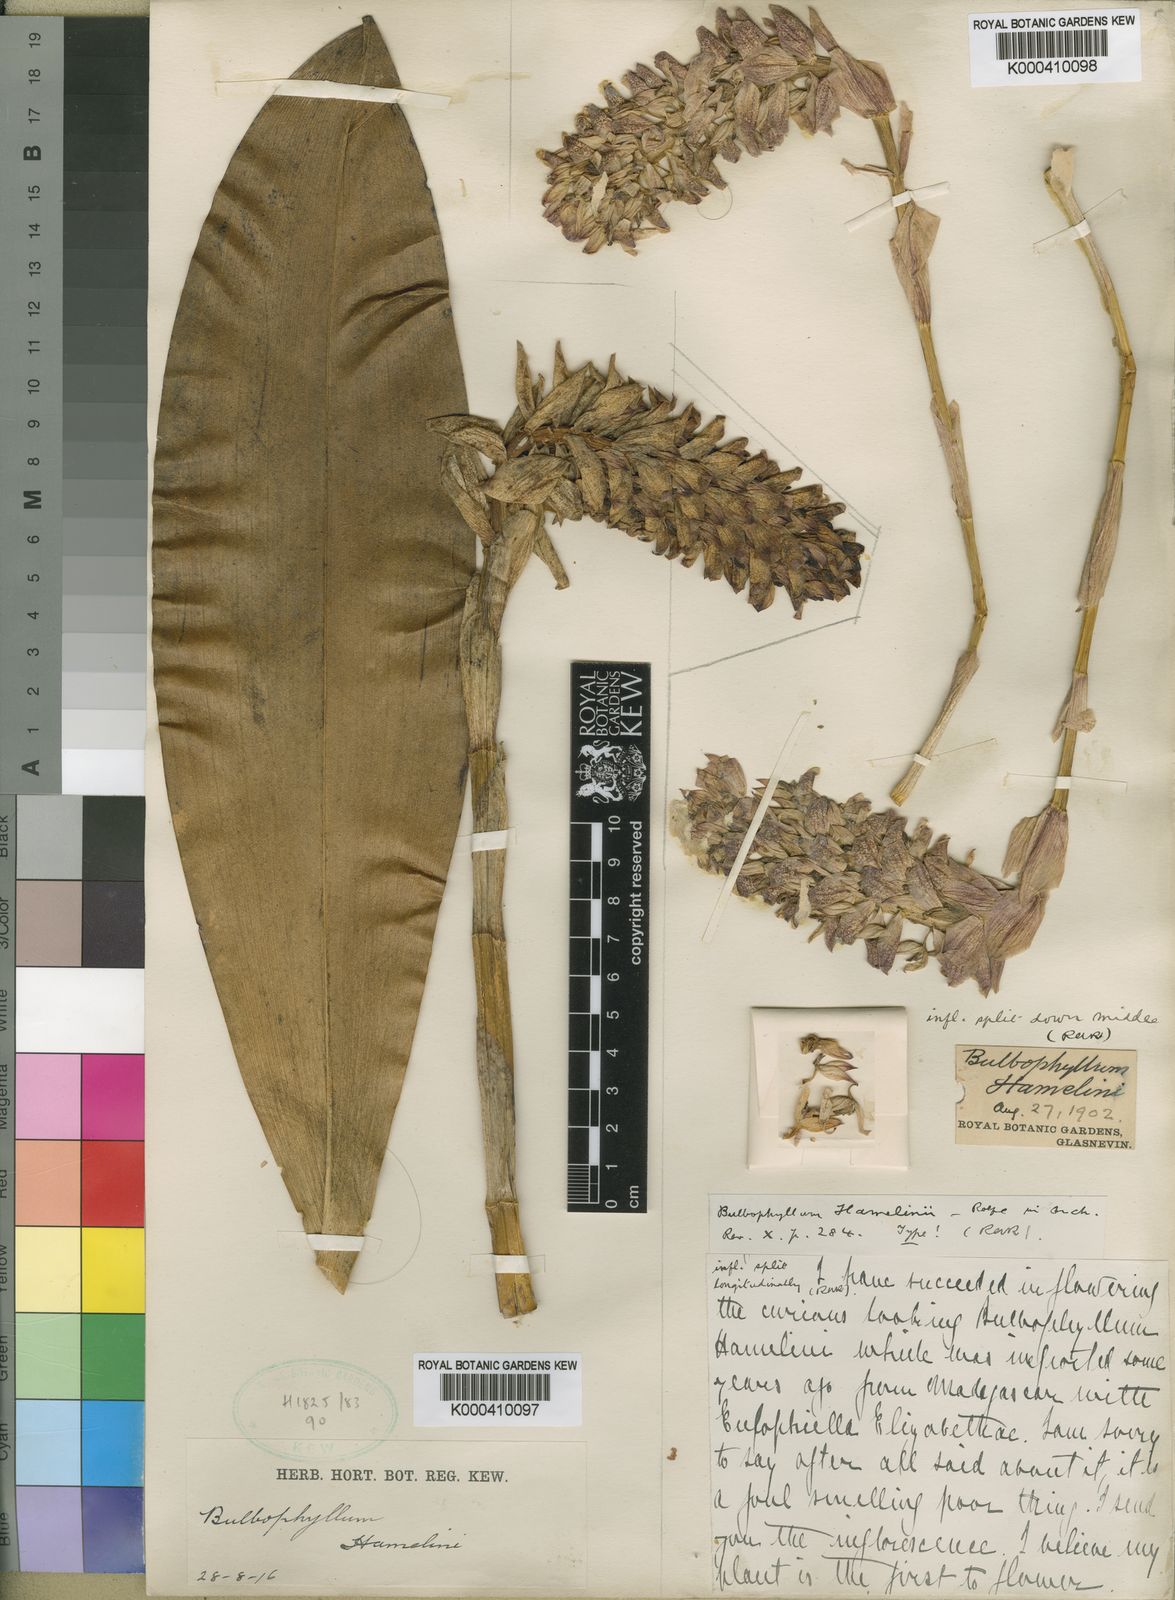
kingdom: Plantae
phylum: Tracheophyta
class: Liliopsida
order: Asparagales
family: Orchidaceae
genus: Bulbophyllum
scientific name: Bulbophyllum
